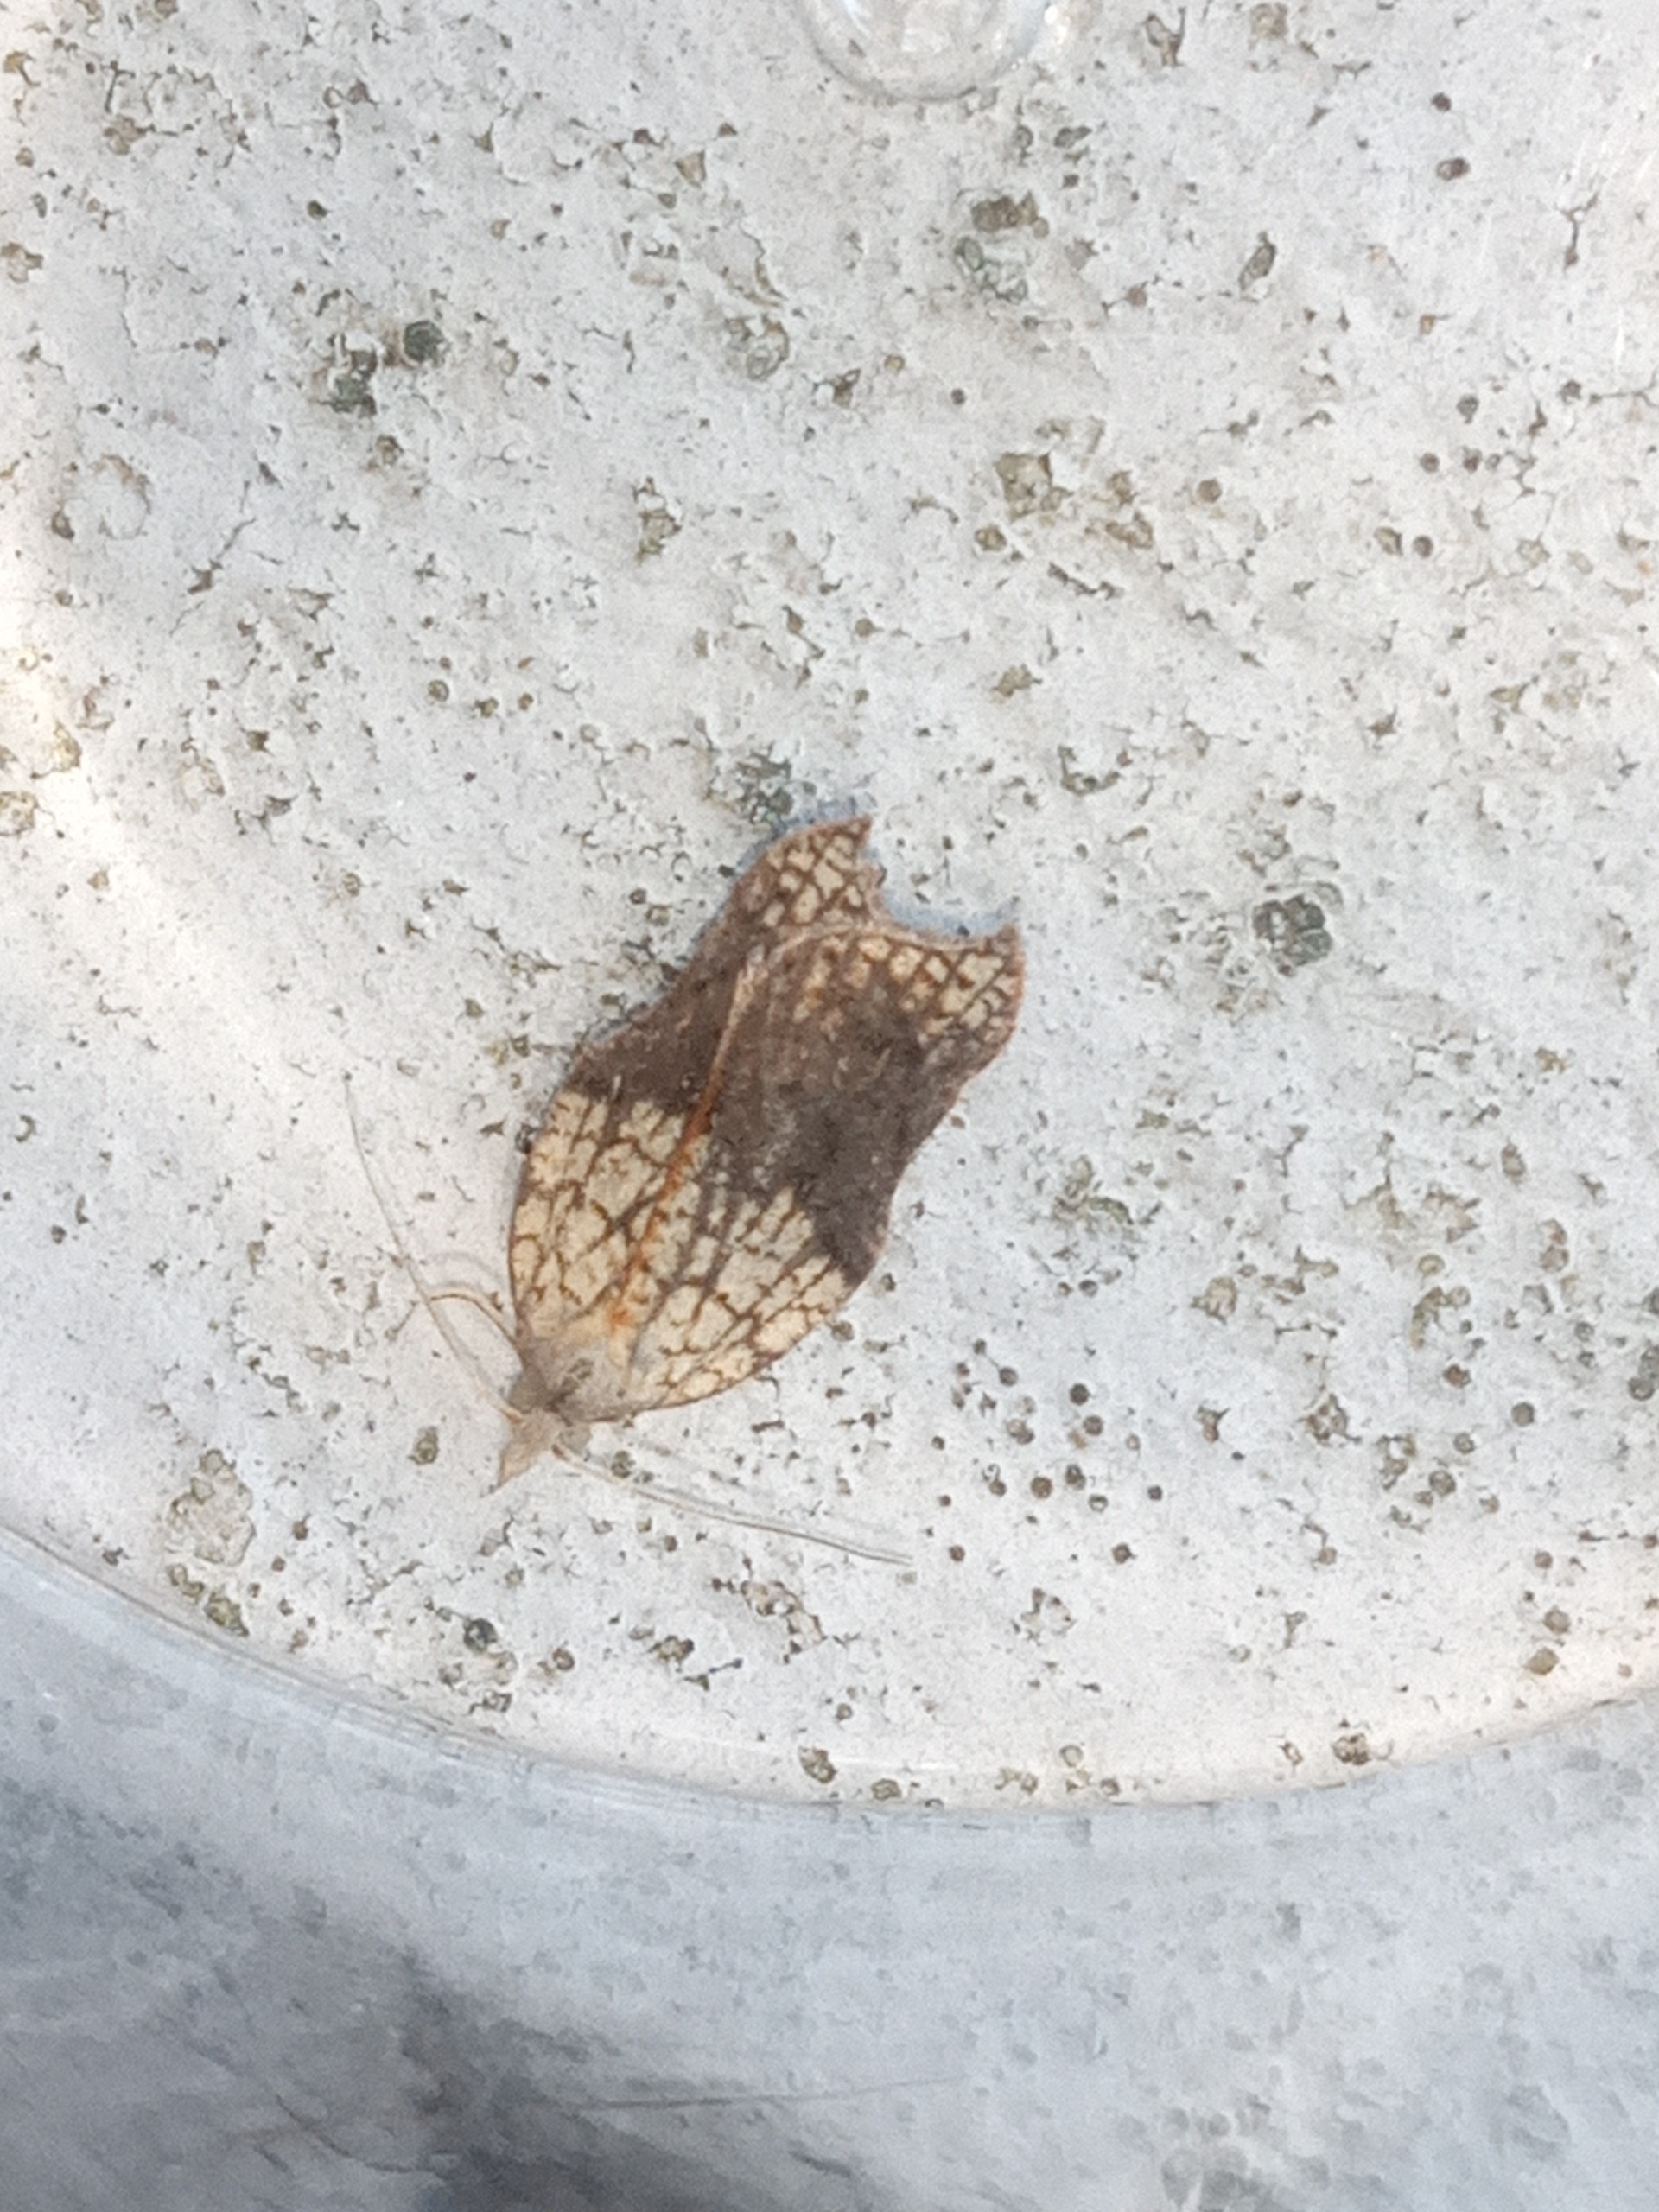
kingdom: Animalia
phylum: Arthropoda
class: Insecta
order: Lepidoptera
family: Tortricidae
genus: Acleris
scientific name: Acleris emargana
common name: Konkav pilevikler
